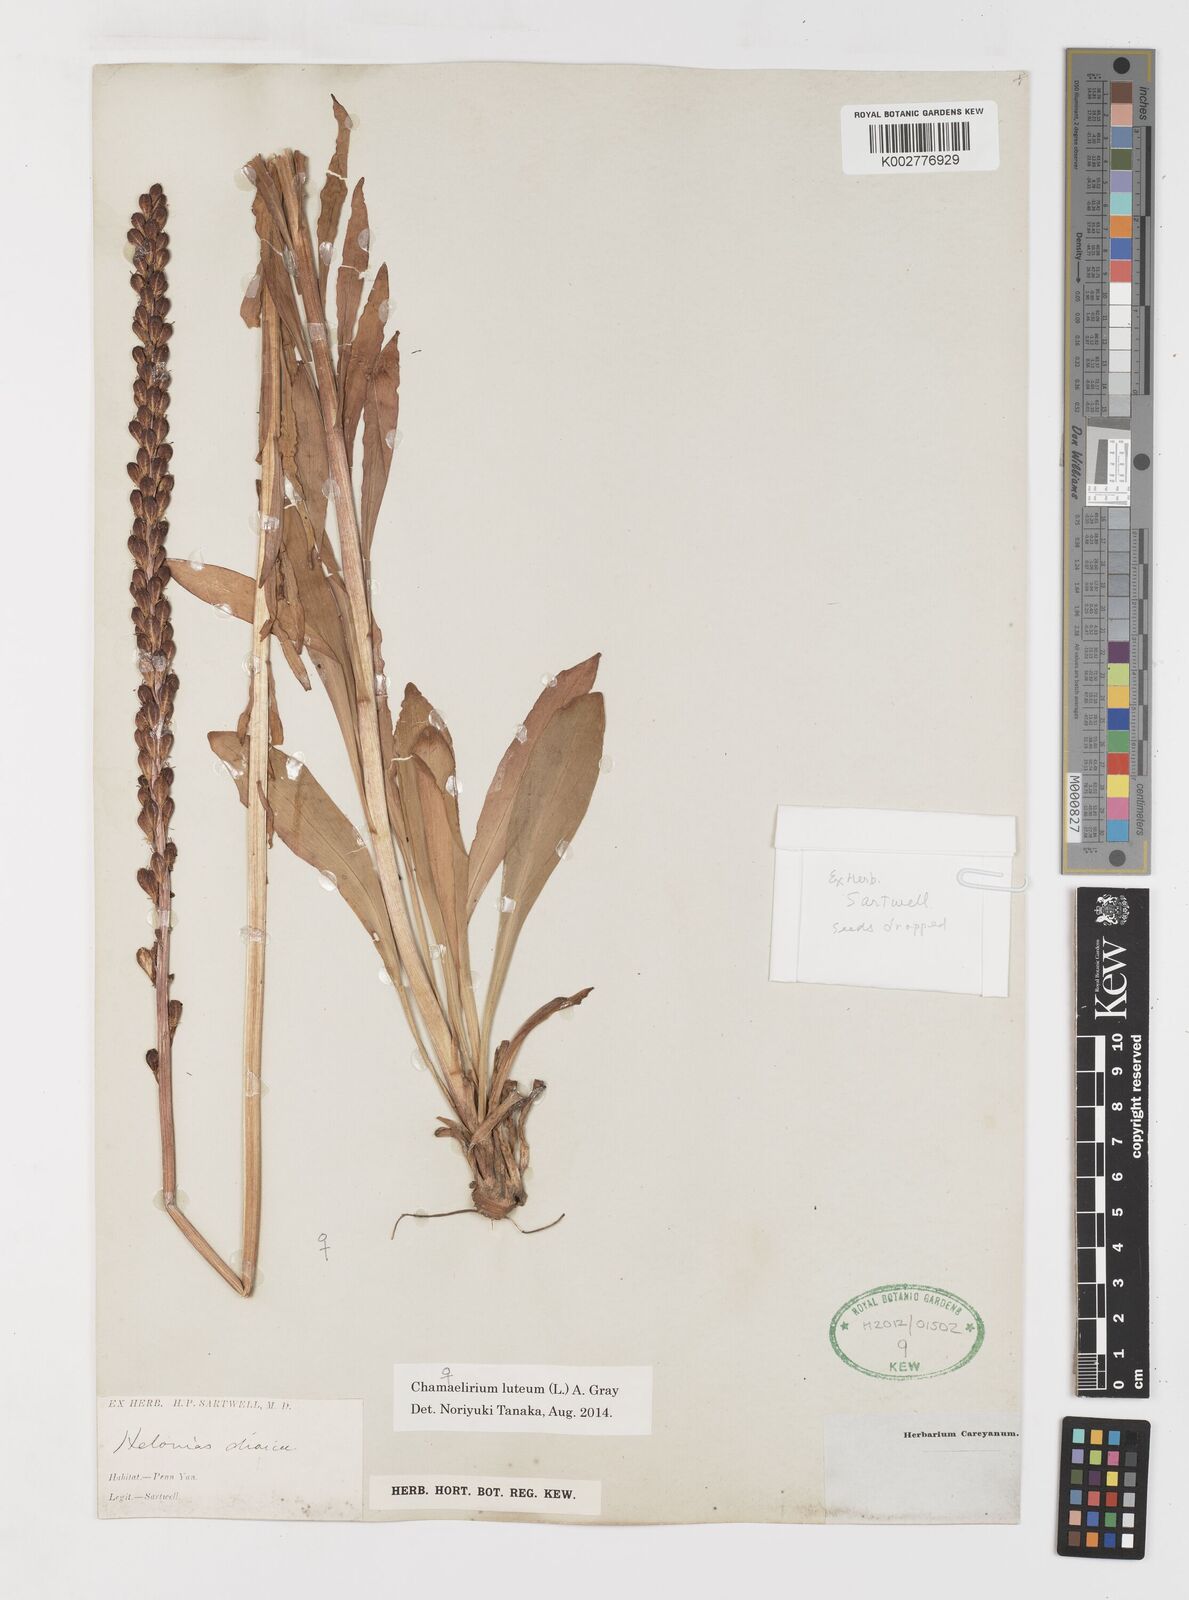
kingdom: Plantae
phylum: Tracheophyta
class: Liliopsida
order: Liliales
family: Melanthiaceae
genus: Chamaelirium
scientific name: Chamaelirium luteum
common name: Fairy-wand
